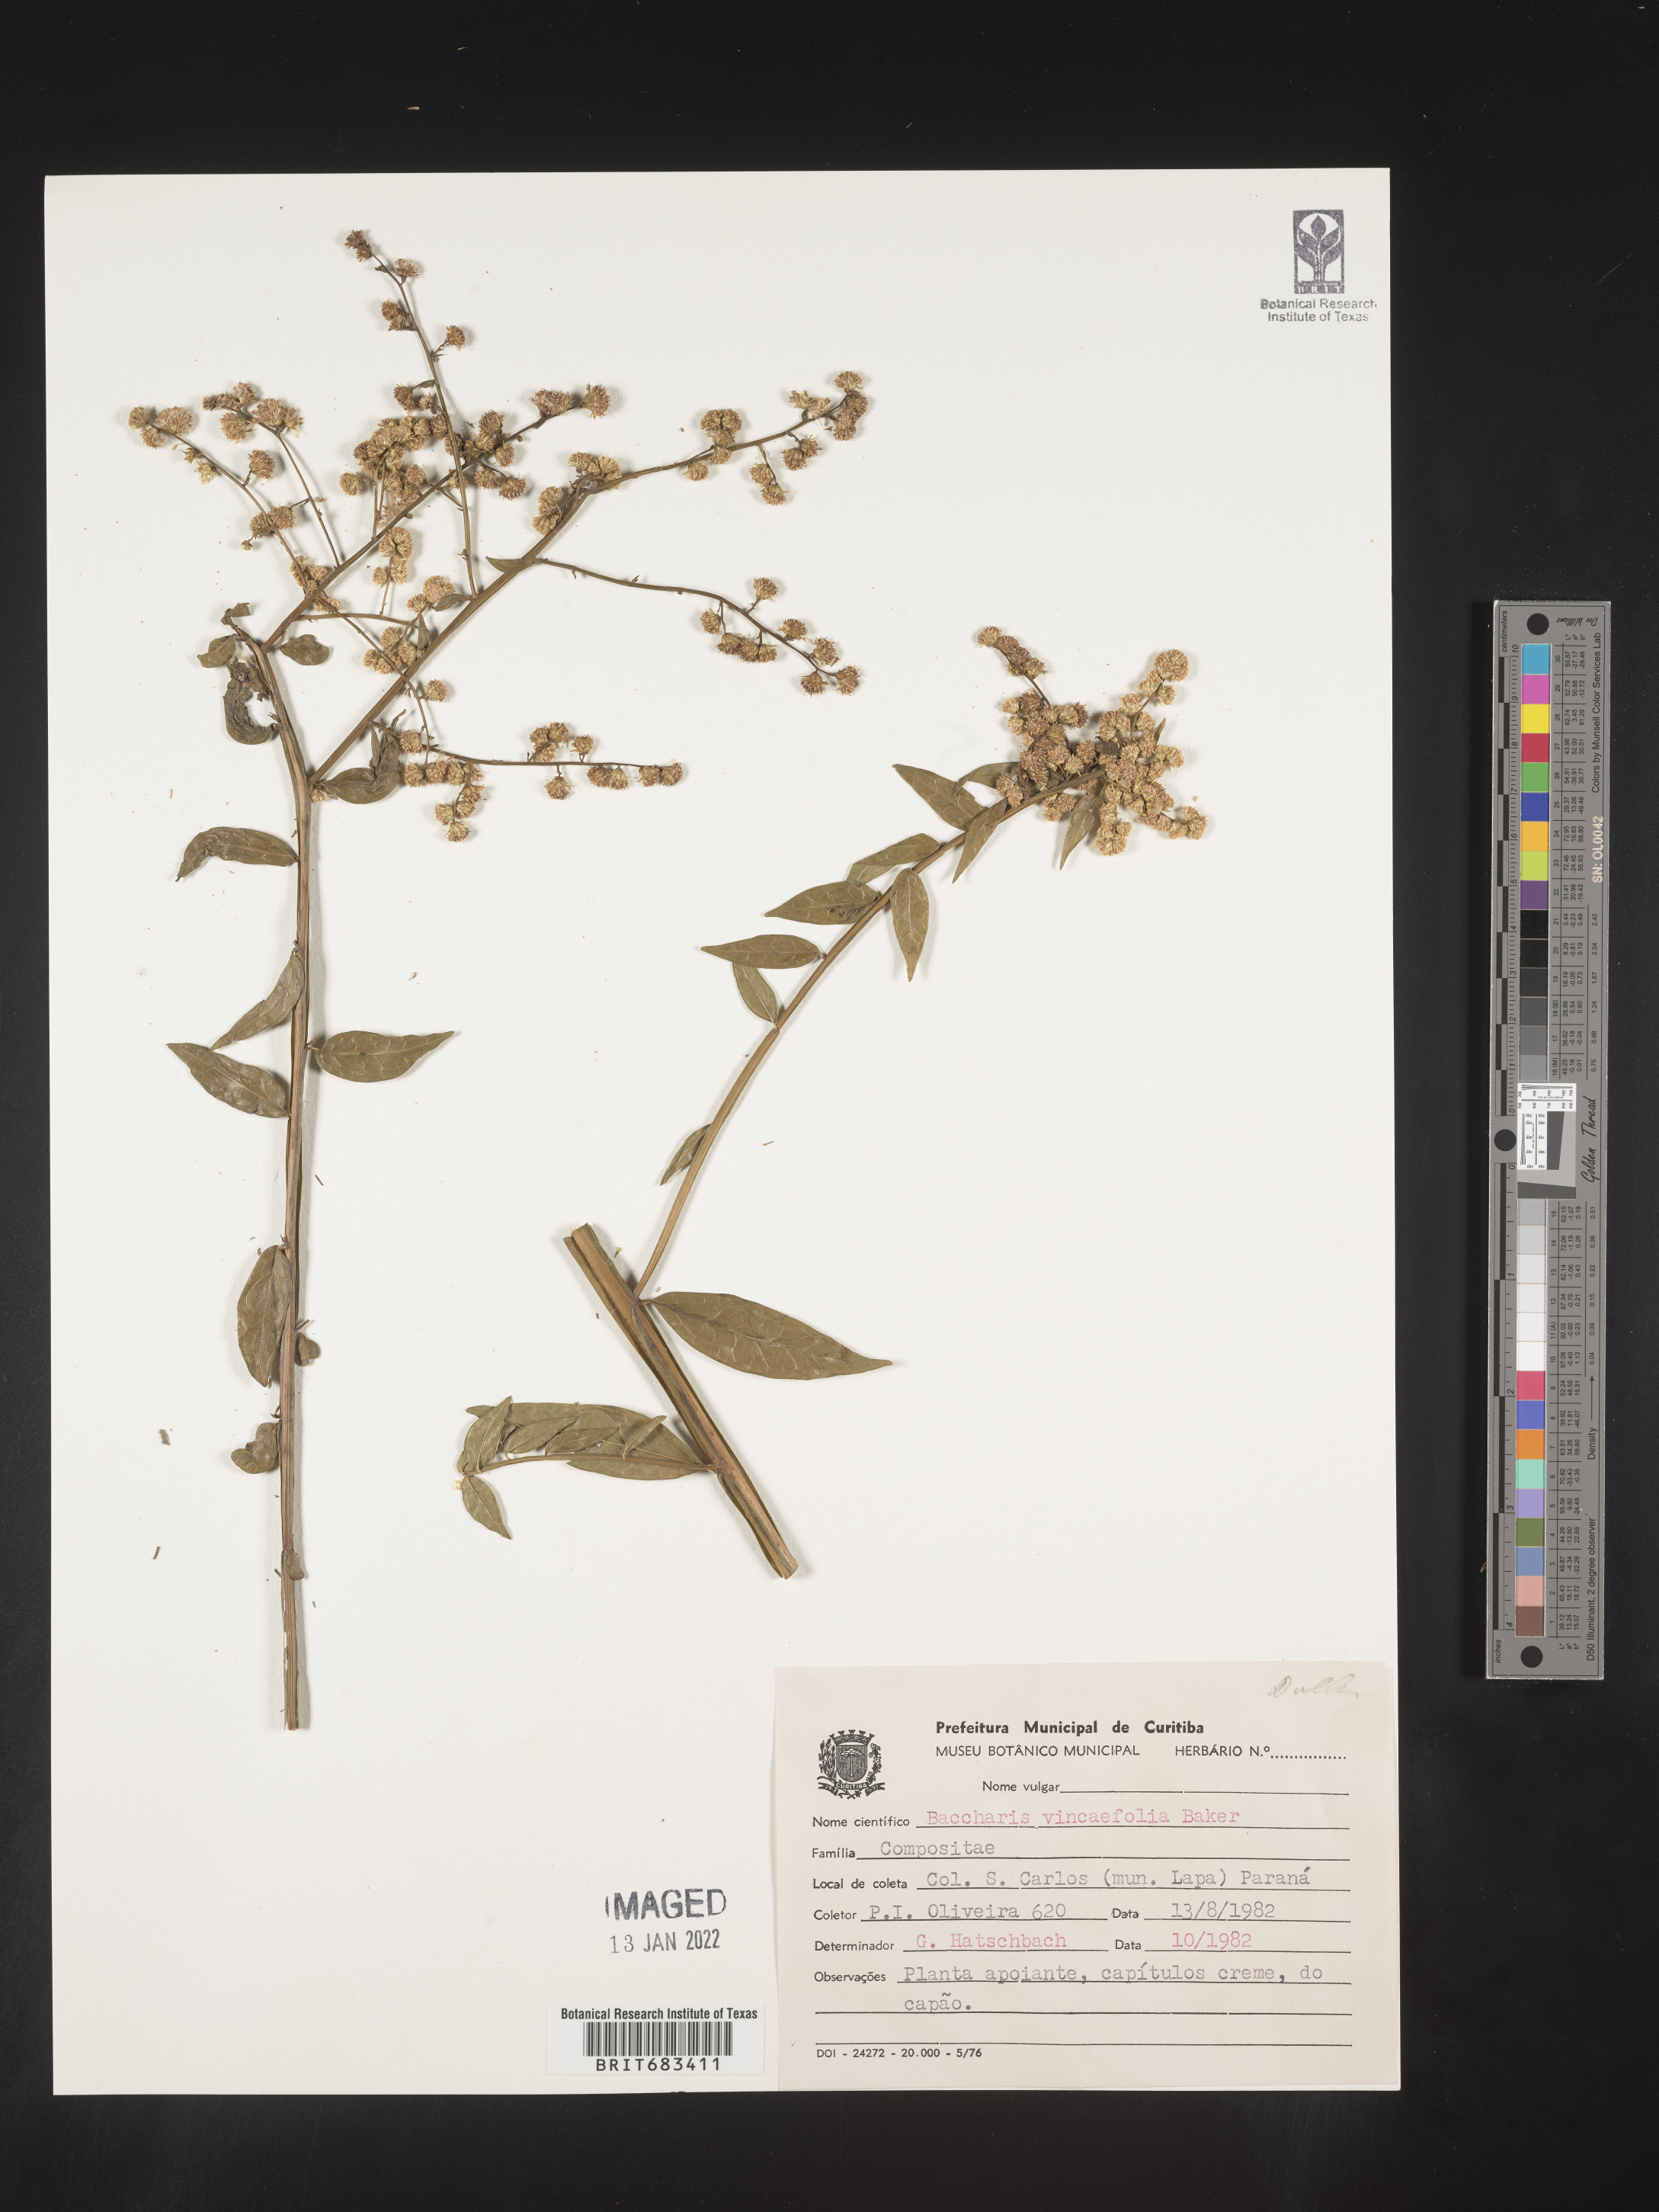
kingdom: Plantae
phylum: Tracheophyta
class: Magnoliopsida
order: Asterales
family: Asteraceae
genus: Baccharis
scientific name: Baccharis
